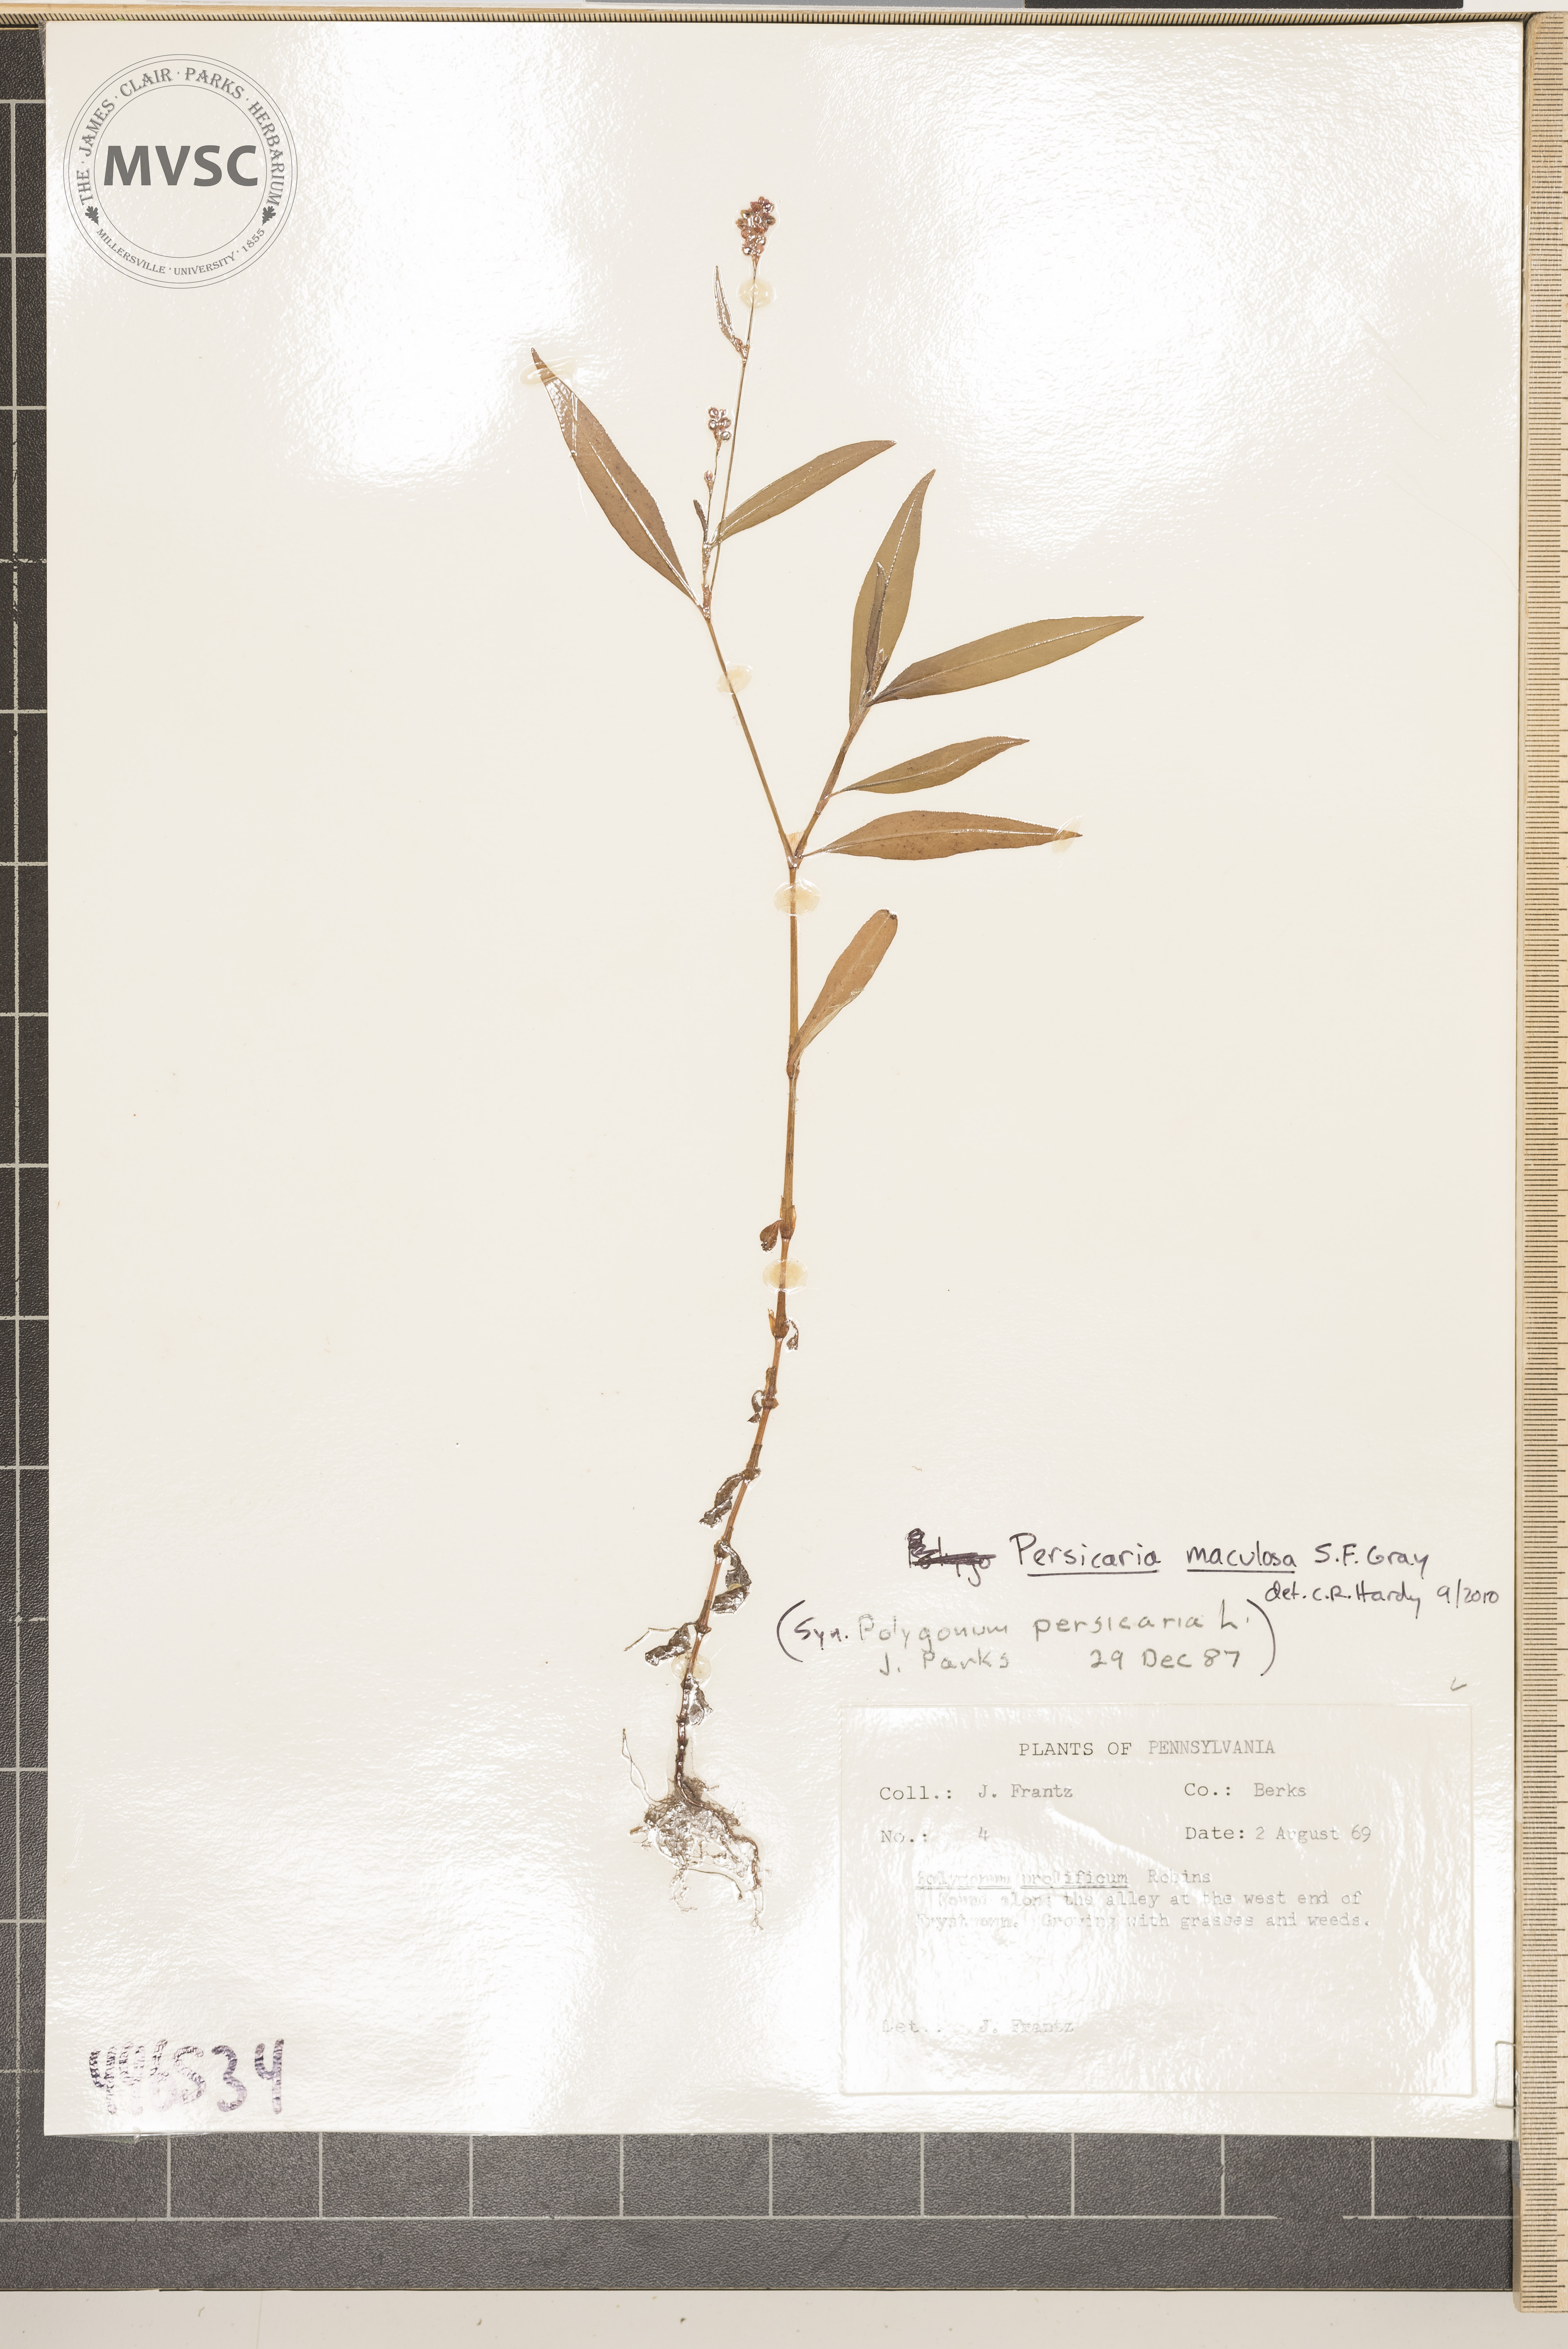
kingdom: Plantae
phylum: Tracheophyta
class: Magnoliopsida
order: Caryophyllales
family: Polygonaceae
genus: Persicaria
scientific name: Persicaria maculosa
